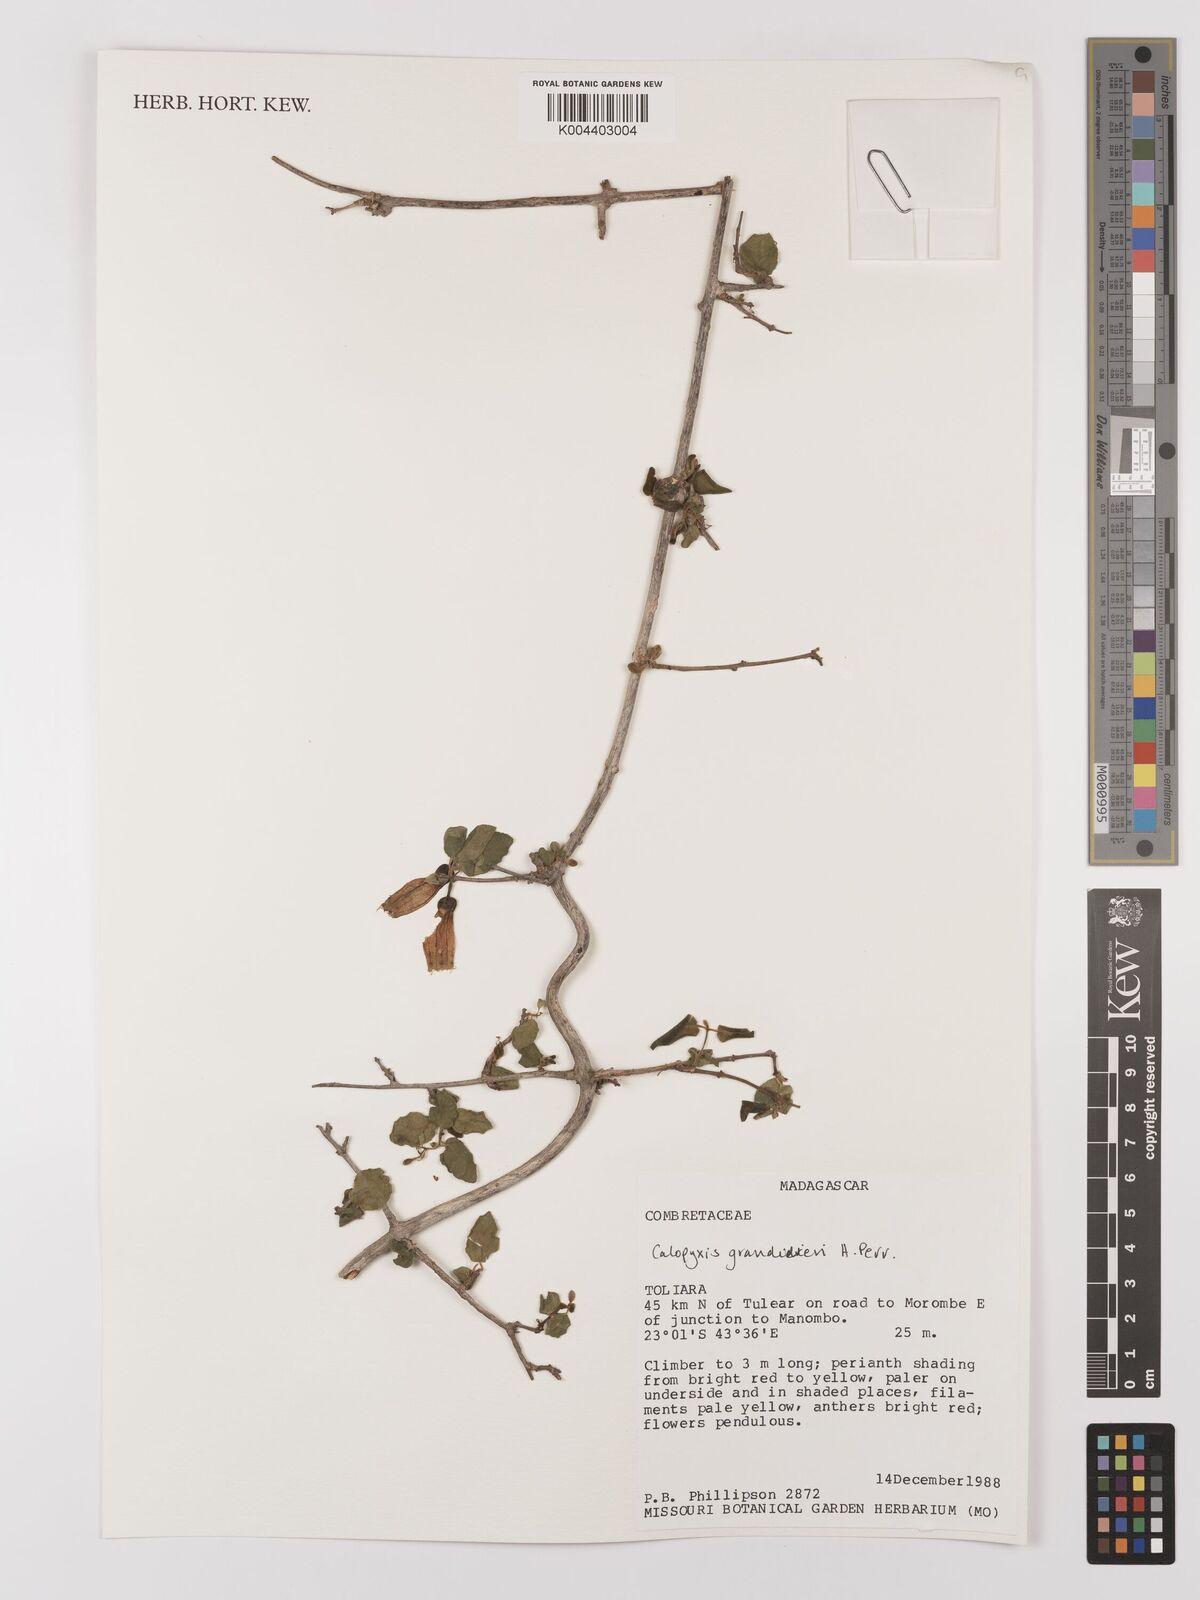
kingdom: Plantae
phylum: Tracheophyta
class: Magnoliopsida
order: Myrtales
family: Combretaceae
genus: Combretum
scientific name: Combretum grandidieri
